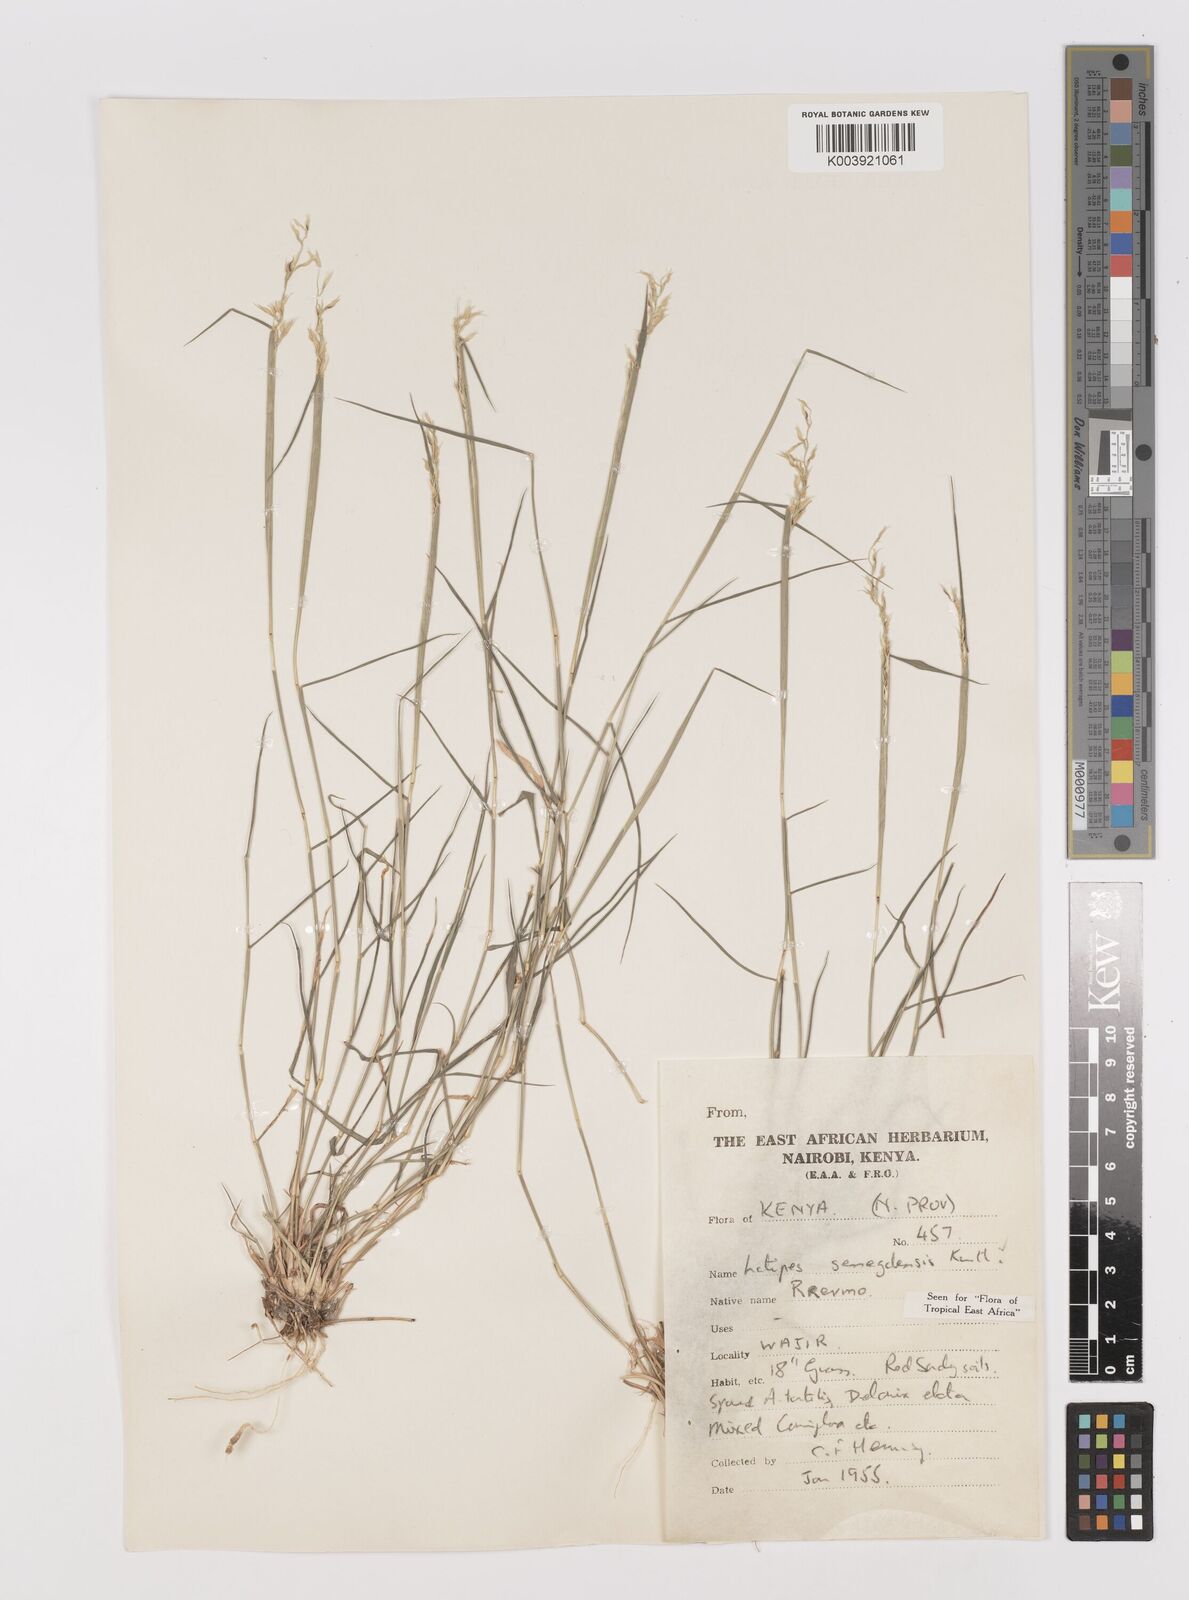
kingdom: Plantae
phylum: Tracheophyta
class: Liliopsida
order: Poales
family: Poaceae
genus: Leptothrium
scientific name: Leptothrium senegalense
